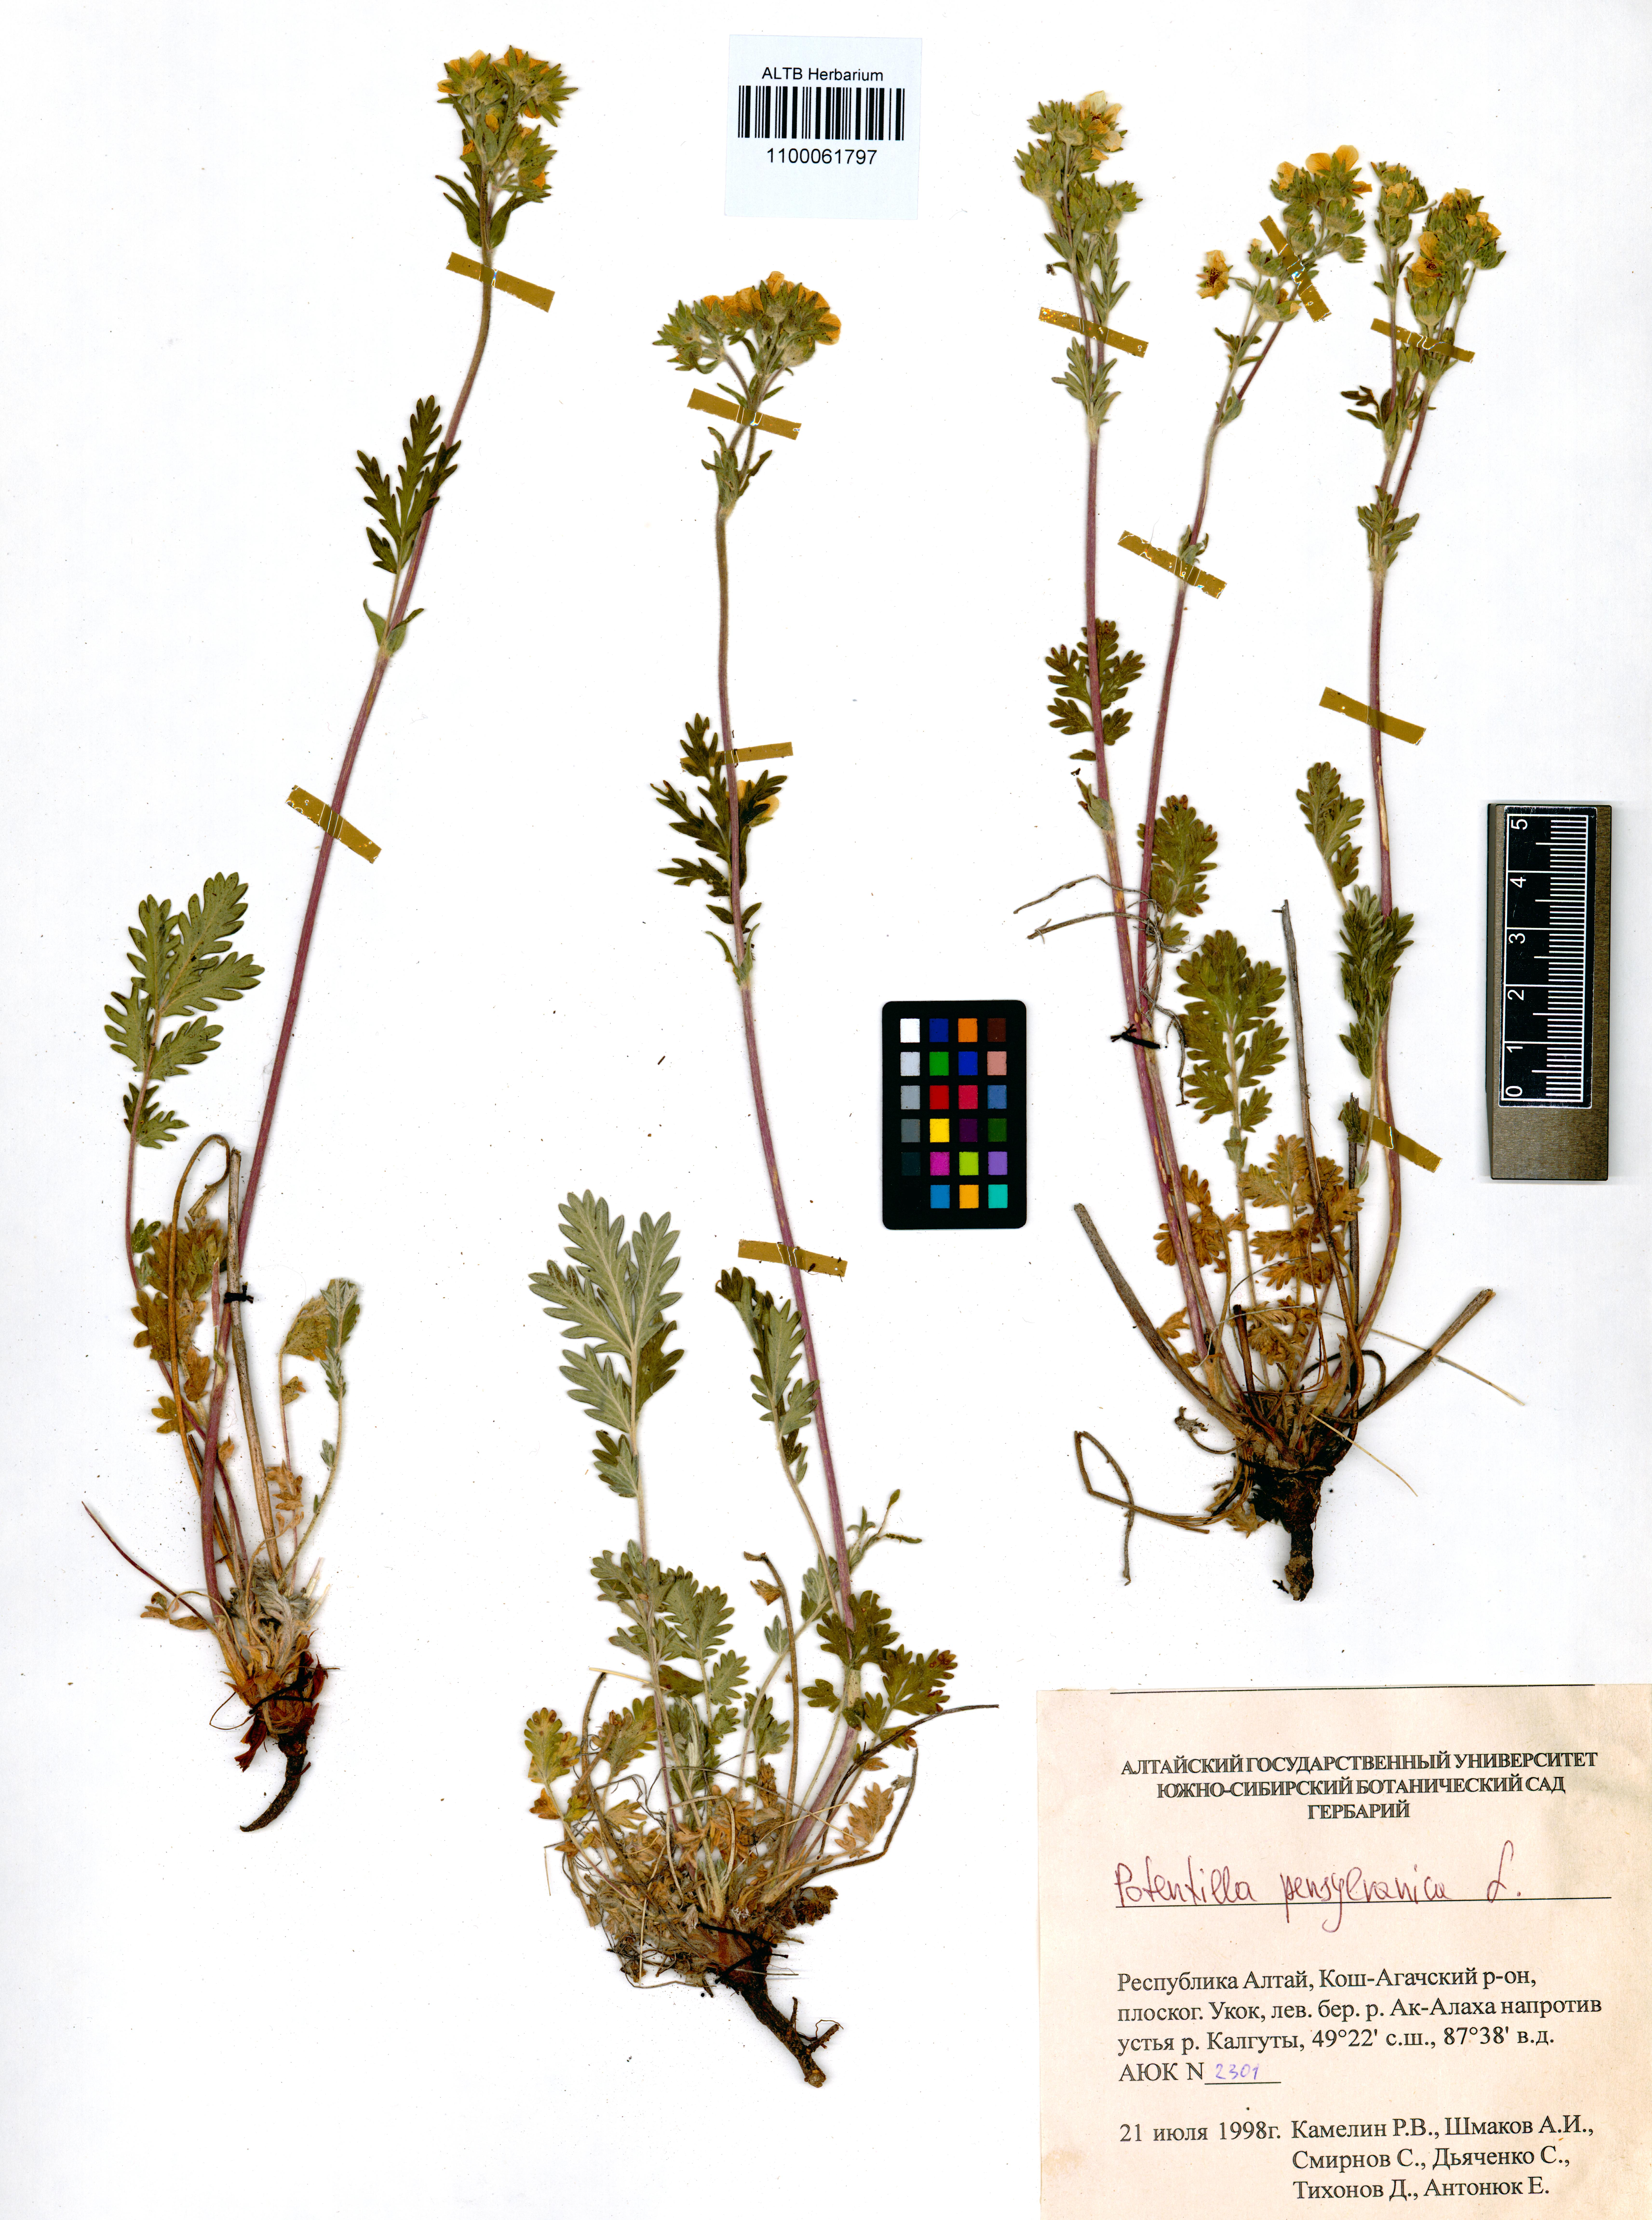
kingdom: Plantae
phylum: Tracheophyta
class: Magnoliopsida
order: Rosales
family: Rosaceae
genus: Potentilla
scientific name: Potentilla pensylvanica
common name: Pennsylvania cinquefoil
